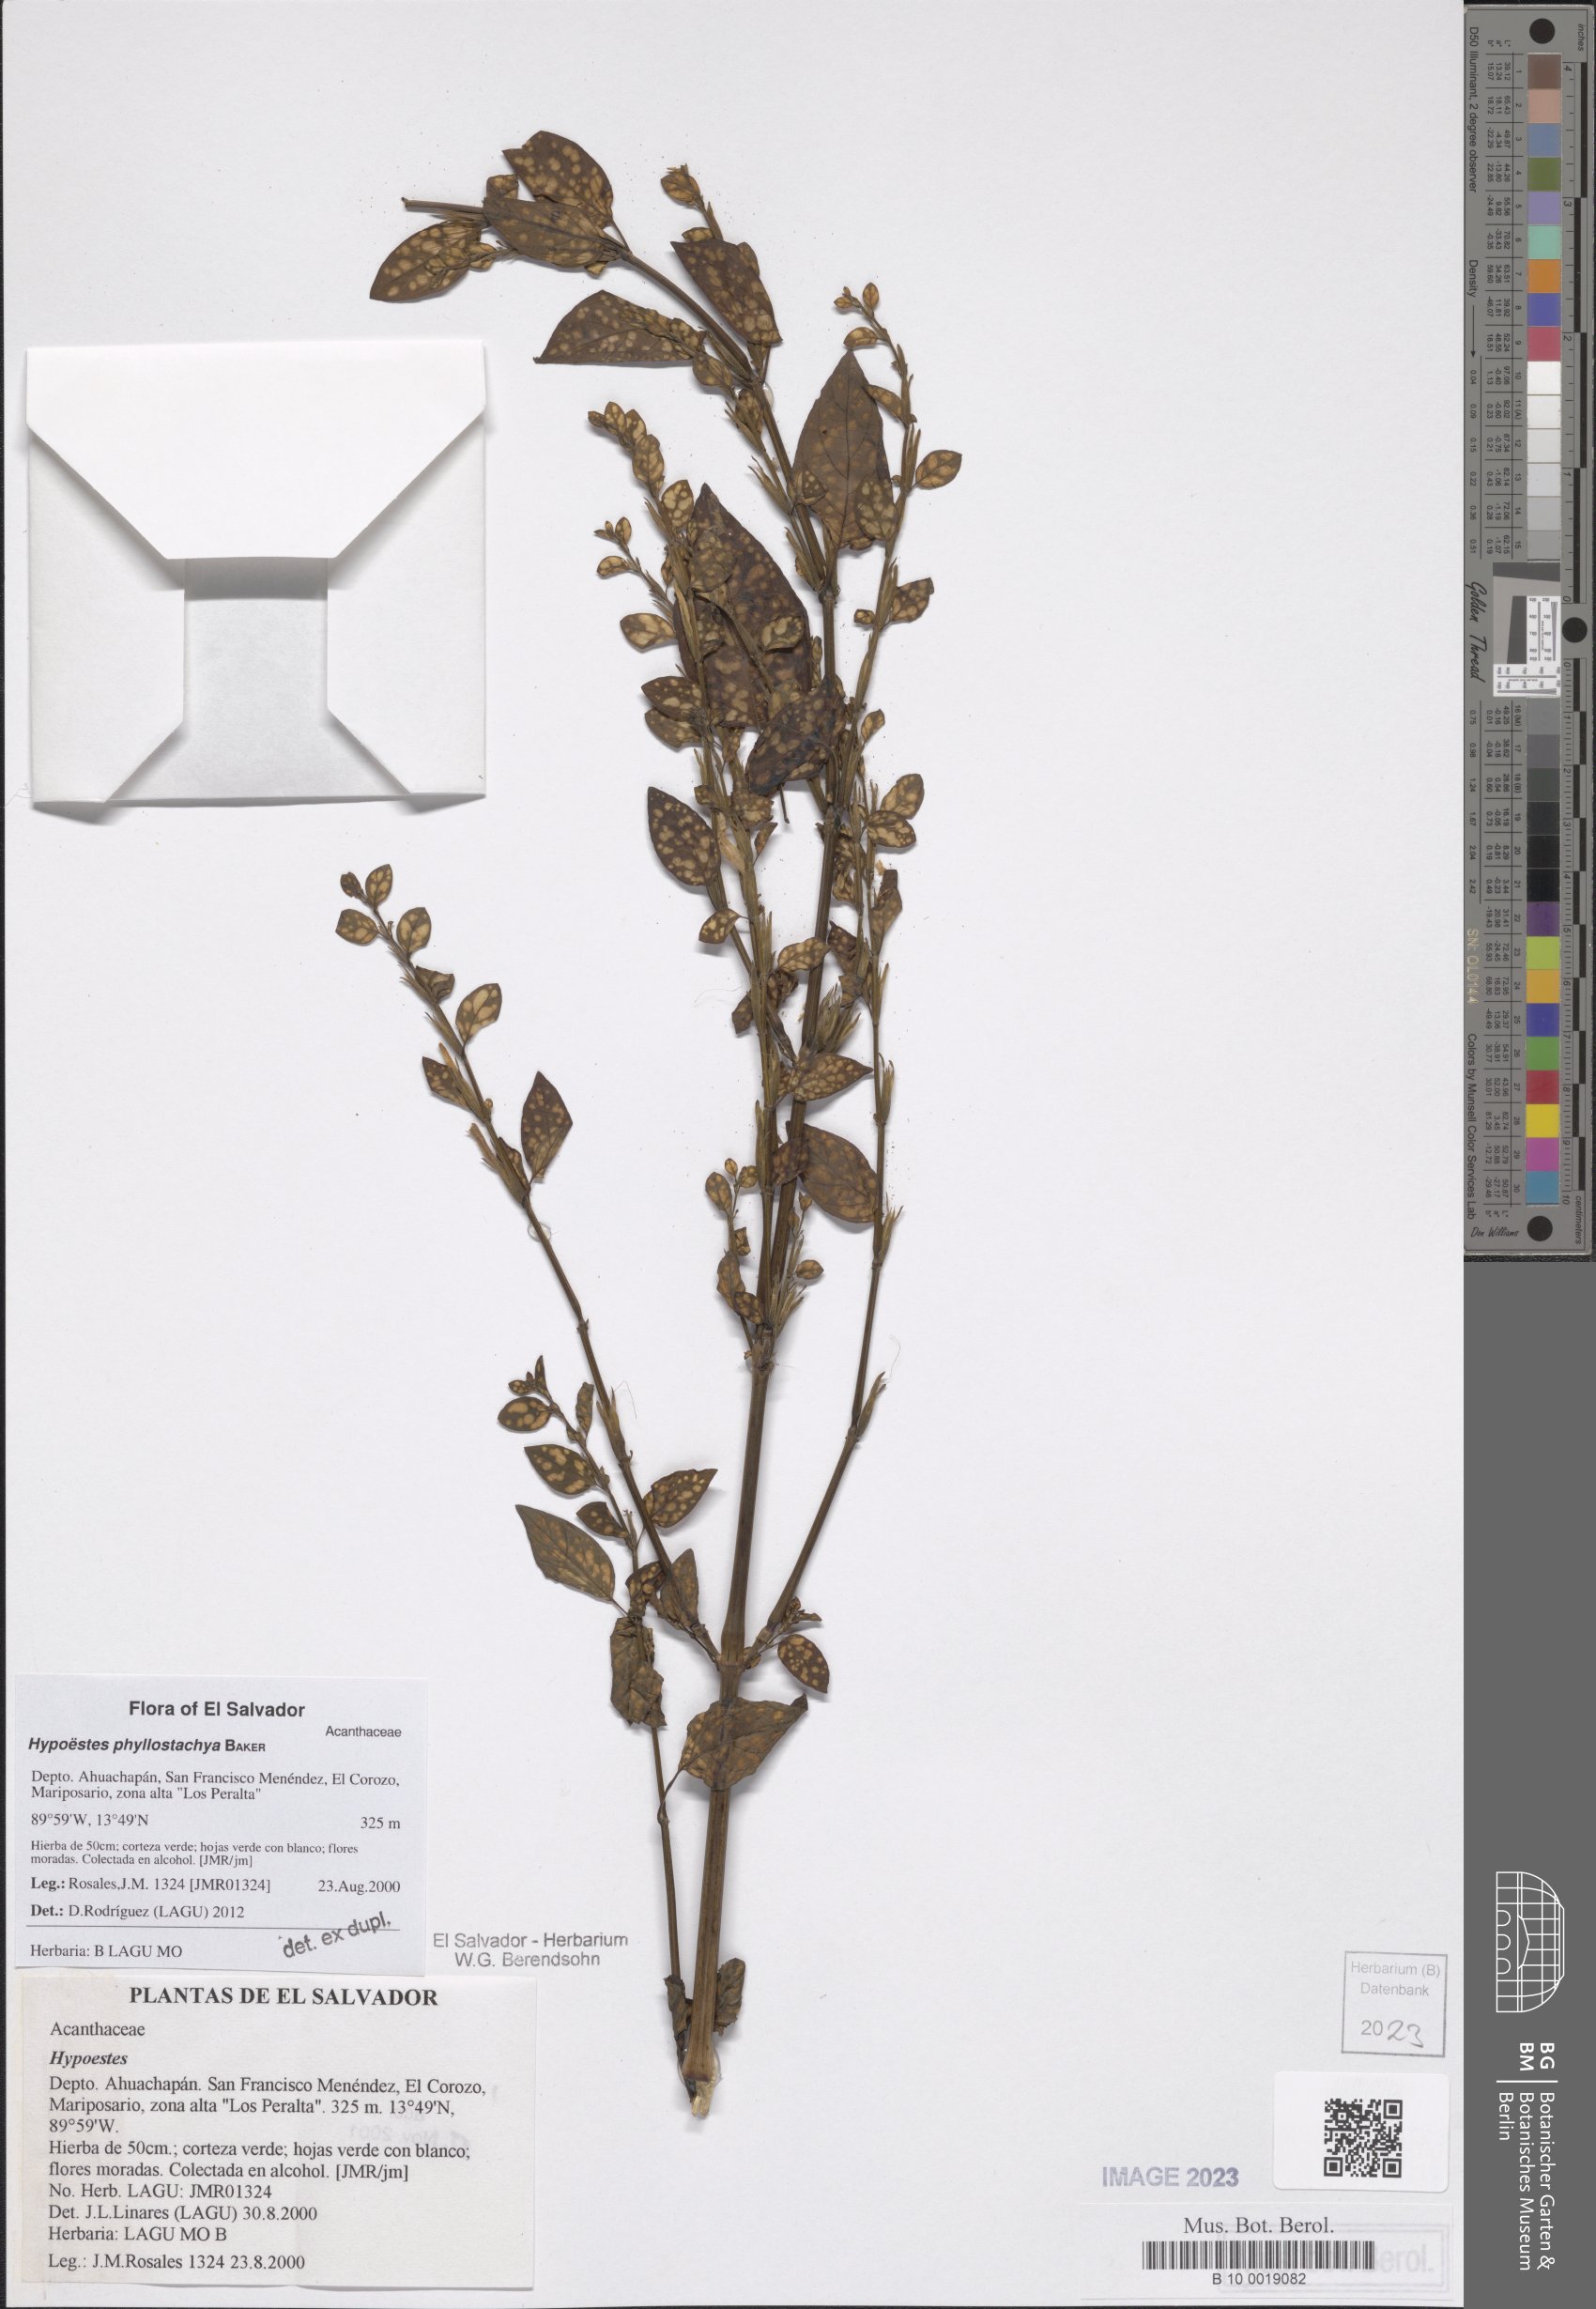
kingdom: Plantae
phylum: Tracheophyta
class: Magnoliopsida
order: Lamiales
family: Acanthaceae
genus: Hypoestes
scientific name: Hypoestes phyllostachya
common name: Polkadot-plant
